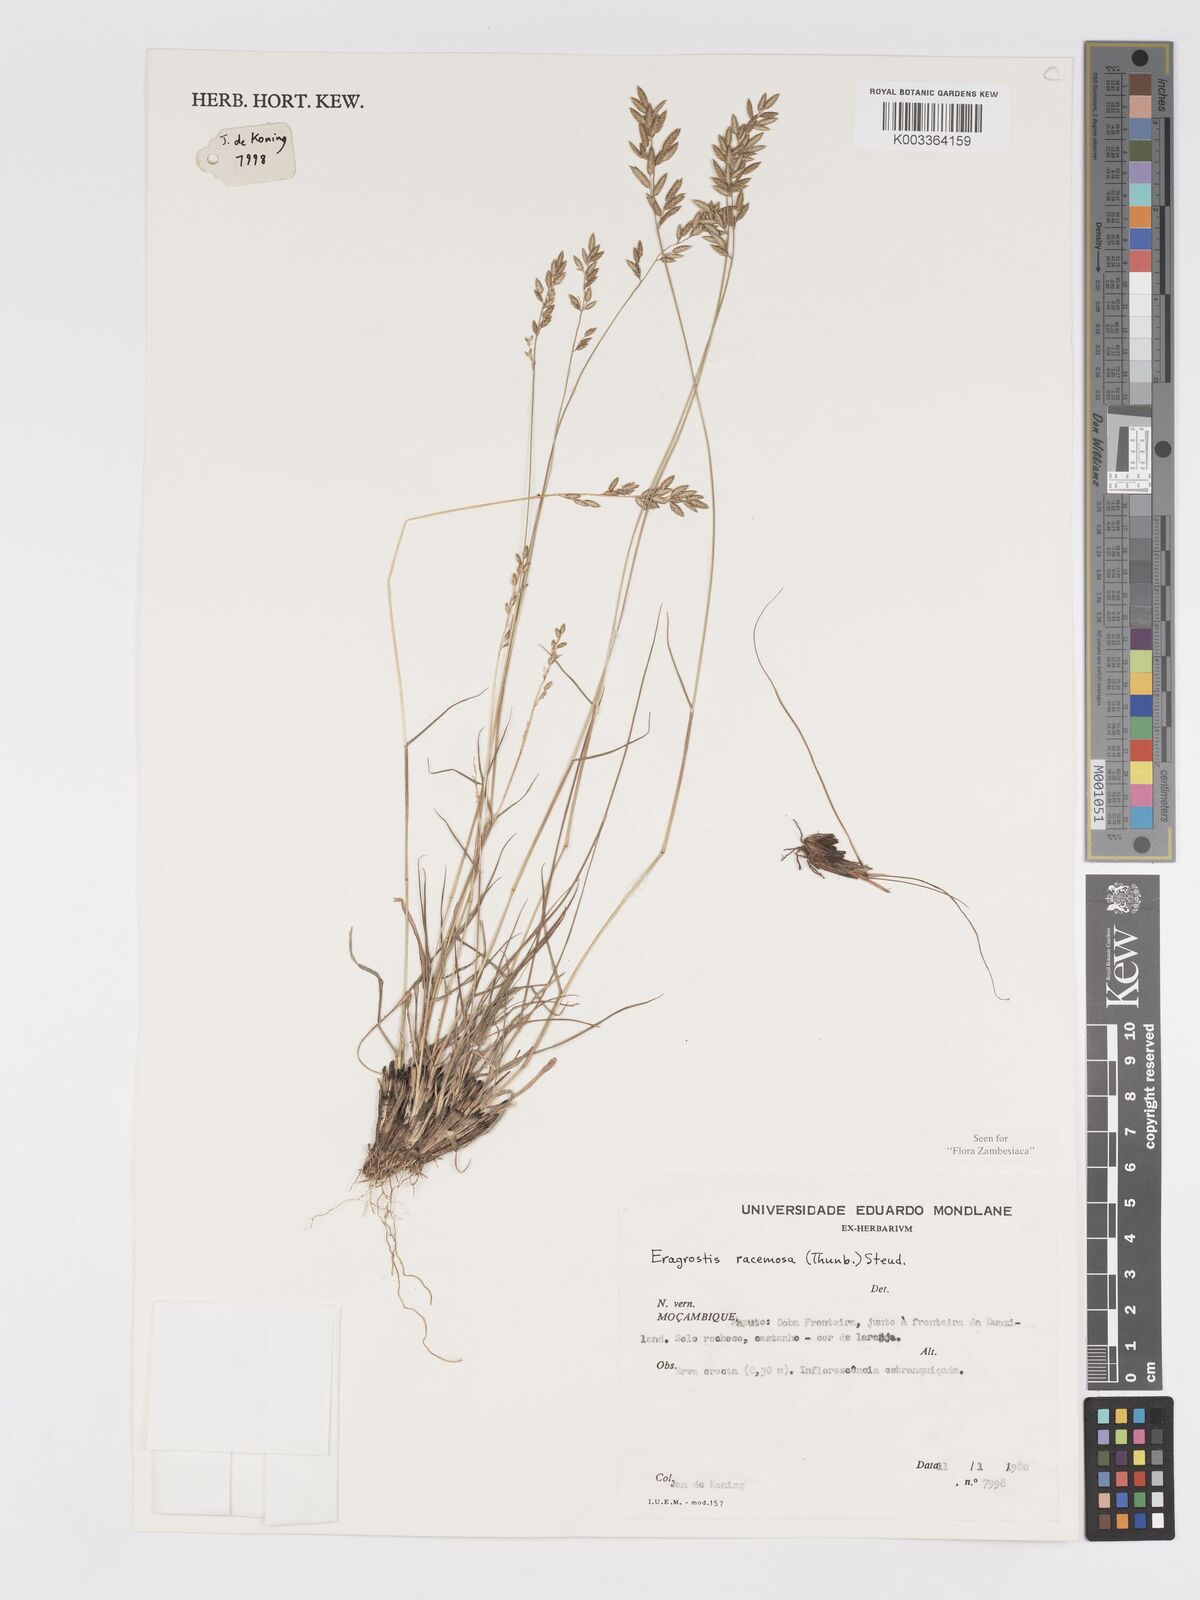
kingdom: Plantae
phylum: Tracheophyta
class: Liliopsida
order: Poales
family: Poaceae
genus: Eragrostis
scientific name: Eragrostis racemosa
